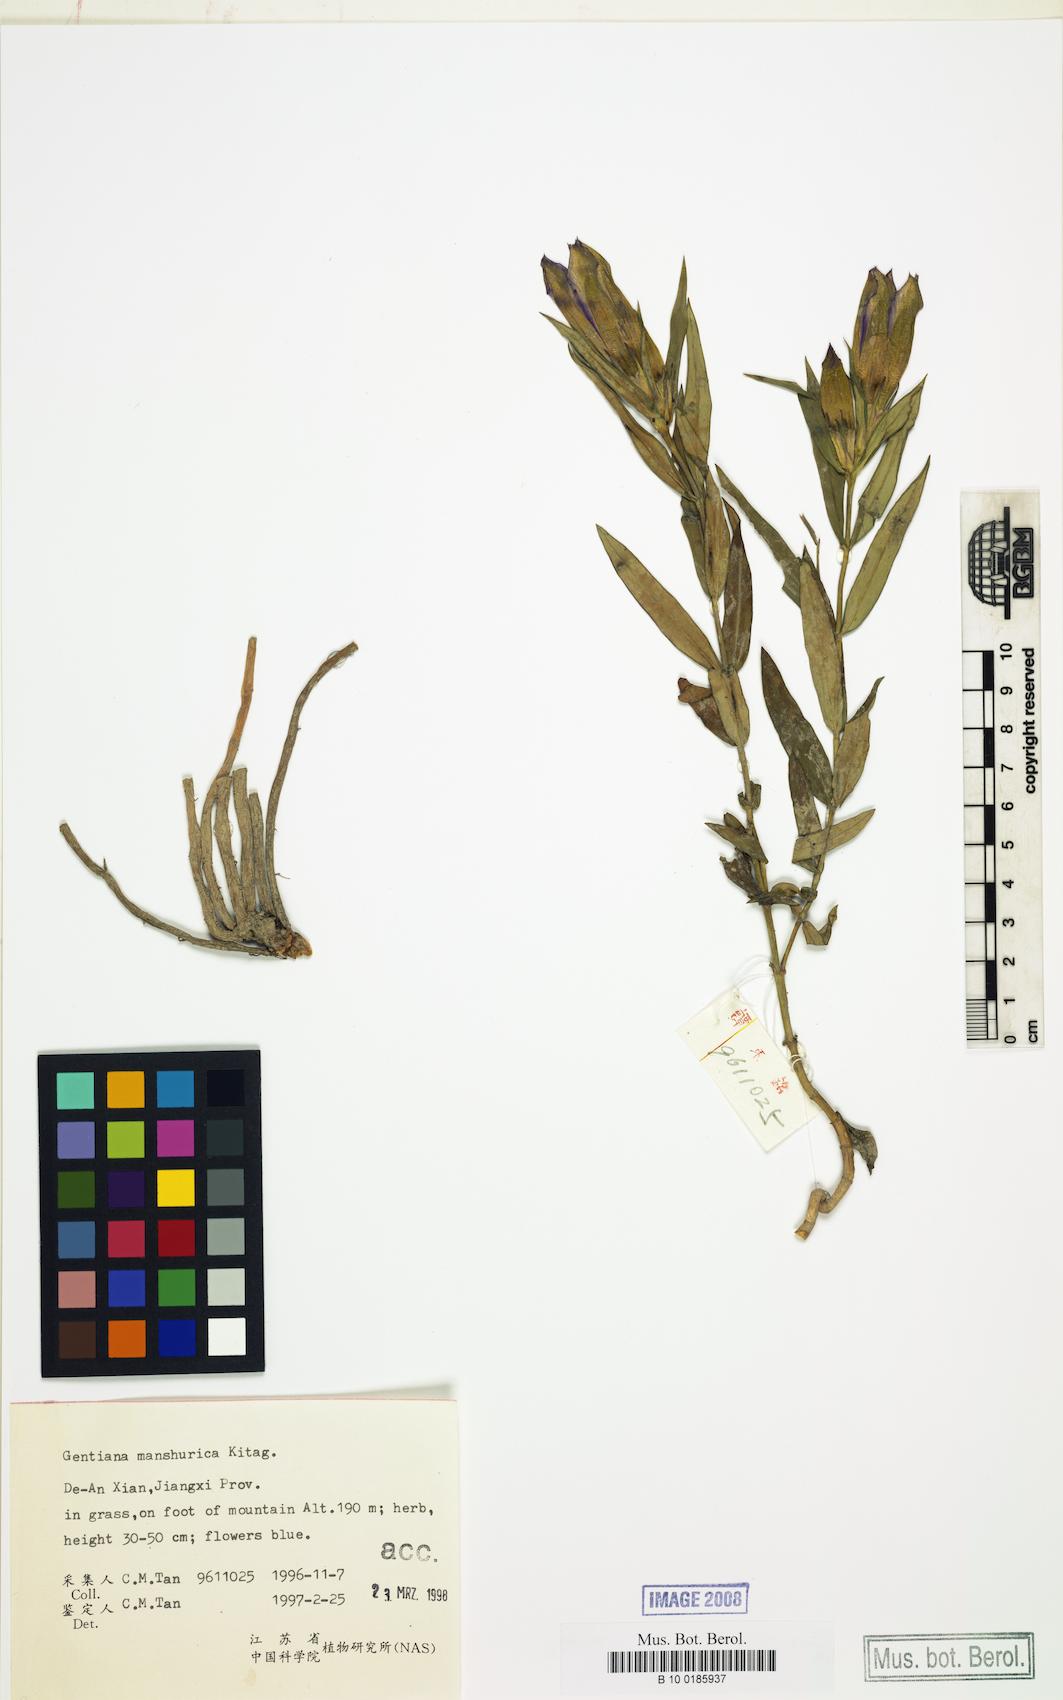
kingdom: Plantae
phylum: Tracheophyta
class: Magnoliopsida
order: Gentianales
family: Gentianaceae
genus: Gentiana
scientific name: Gentiana manshurica
